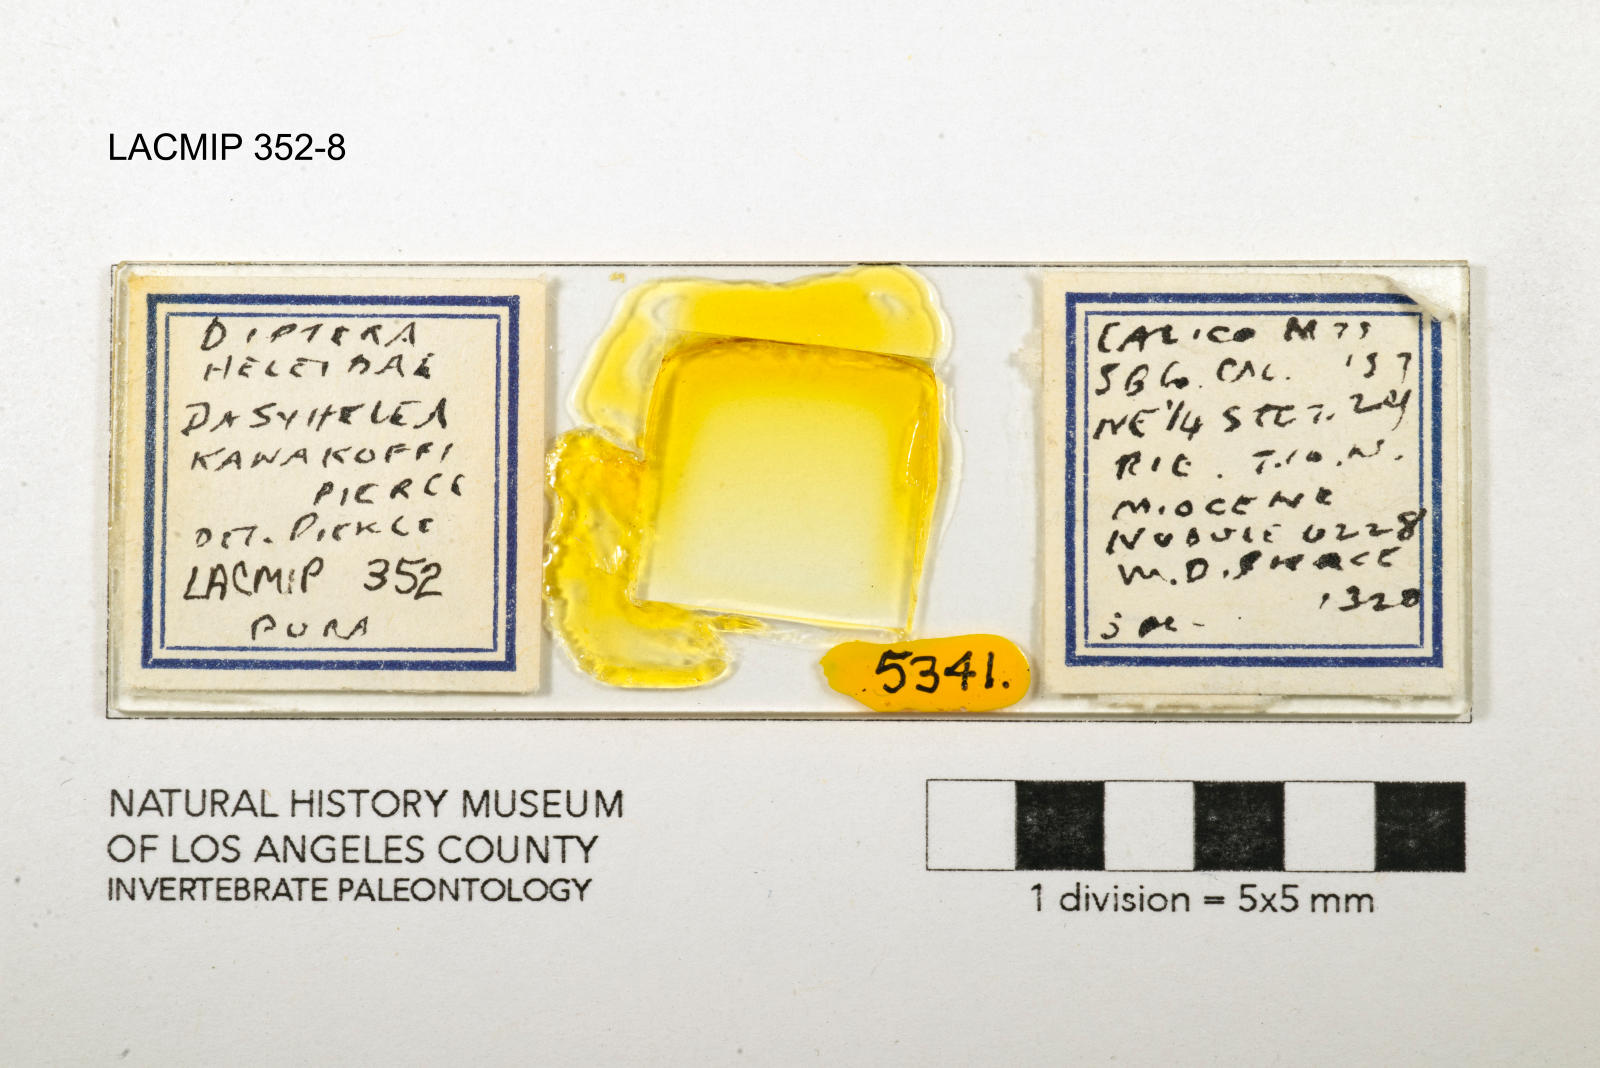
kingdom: Animalia
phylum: Arthropoda
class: Insecta
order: Diptera
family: Ceratopogonidae
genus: Dasyhelea
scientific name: Dasyhelea kanakoffi
